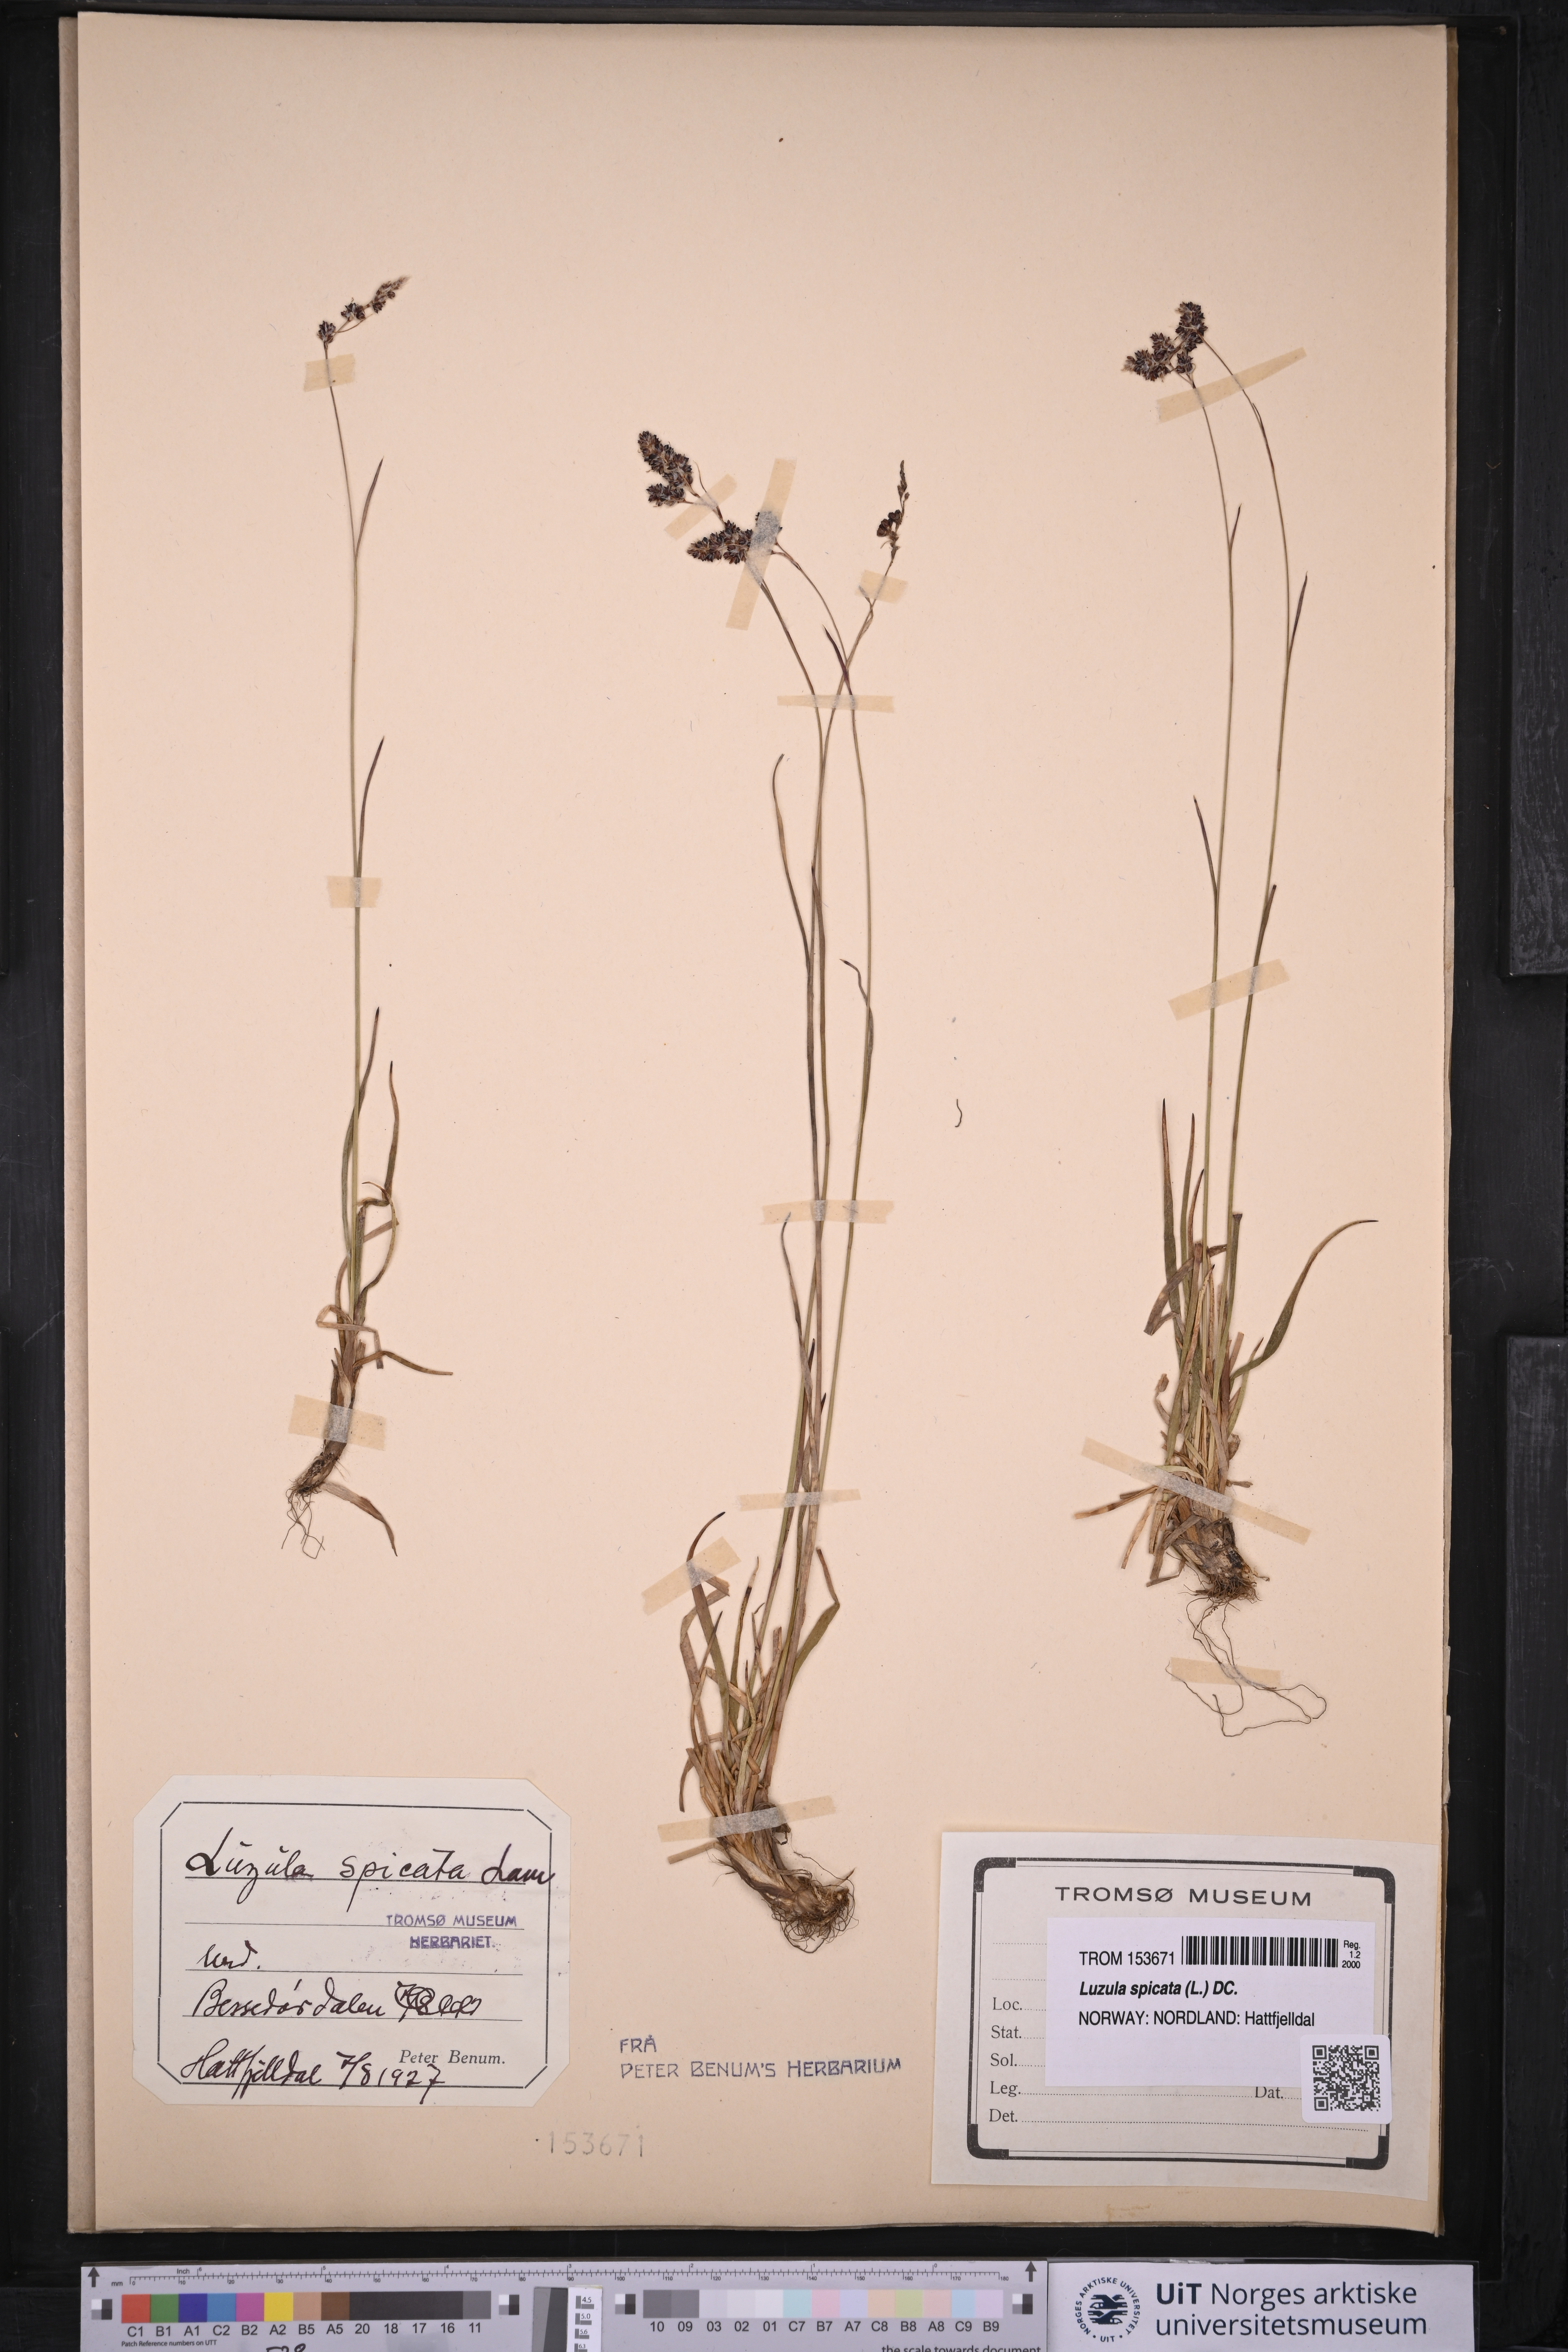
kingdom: Plantae
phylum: Tracheophyta
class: Liliopsida
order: Poales
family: Juncaceae
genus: Luzula
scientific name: Luzula spicata
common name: Spiked wood-rush
